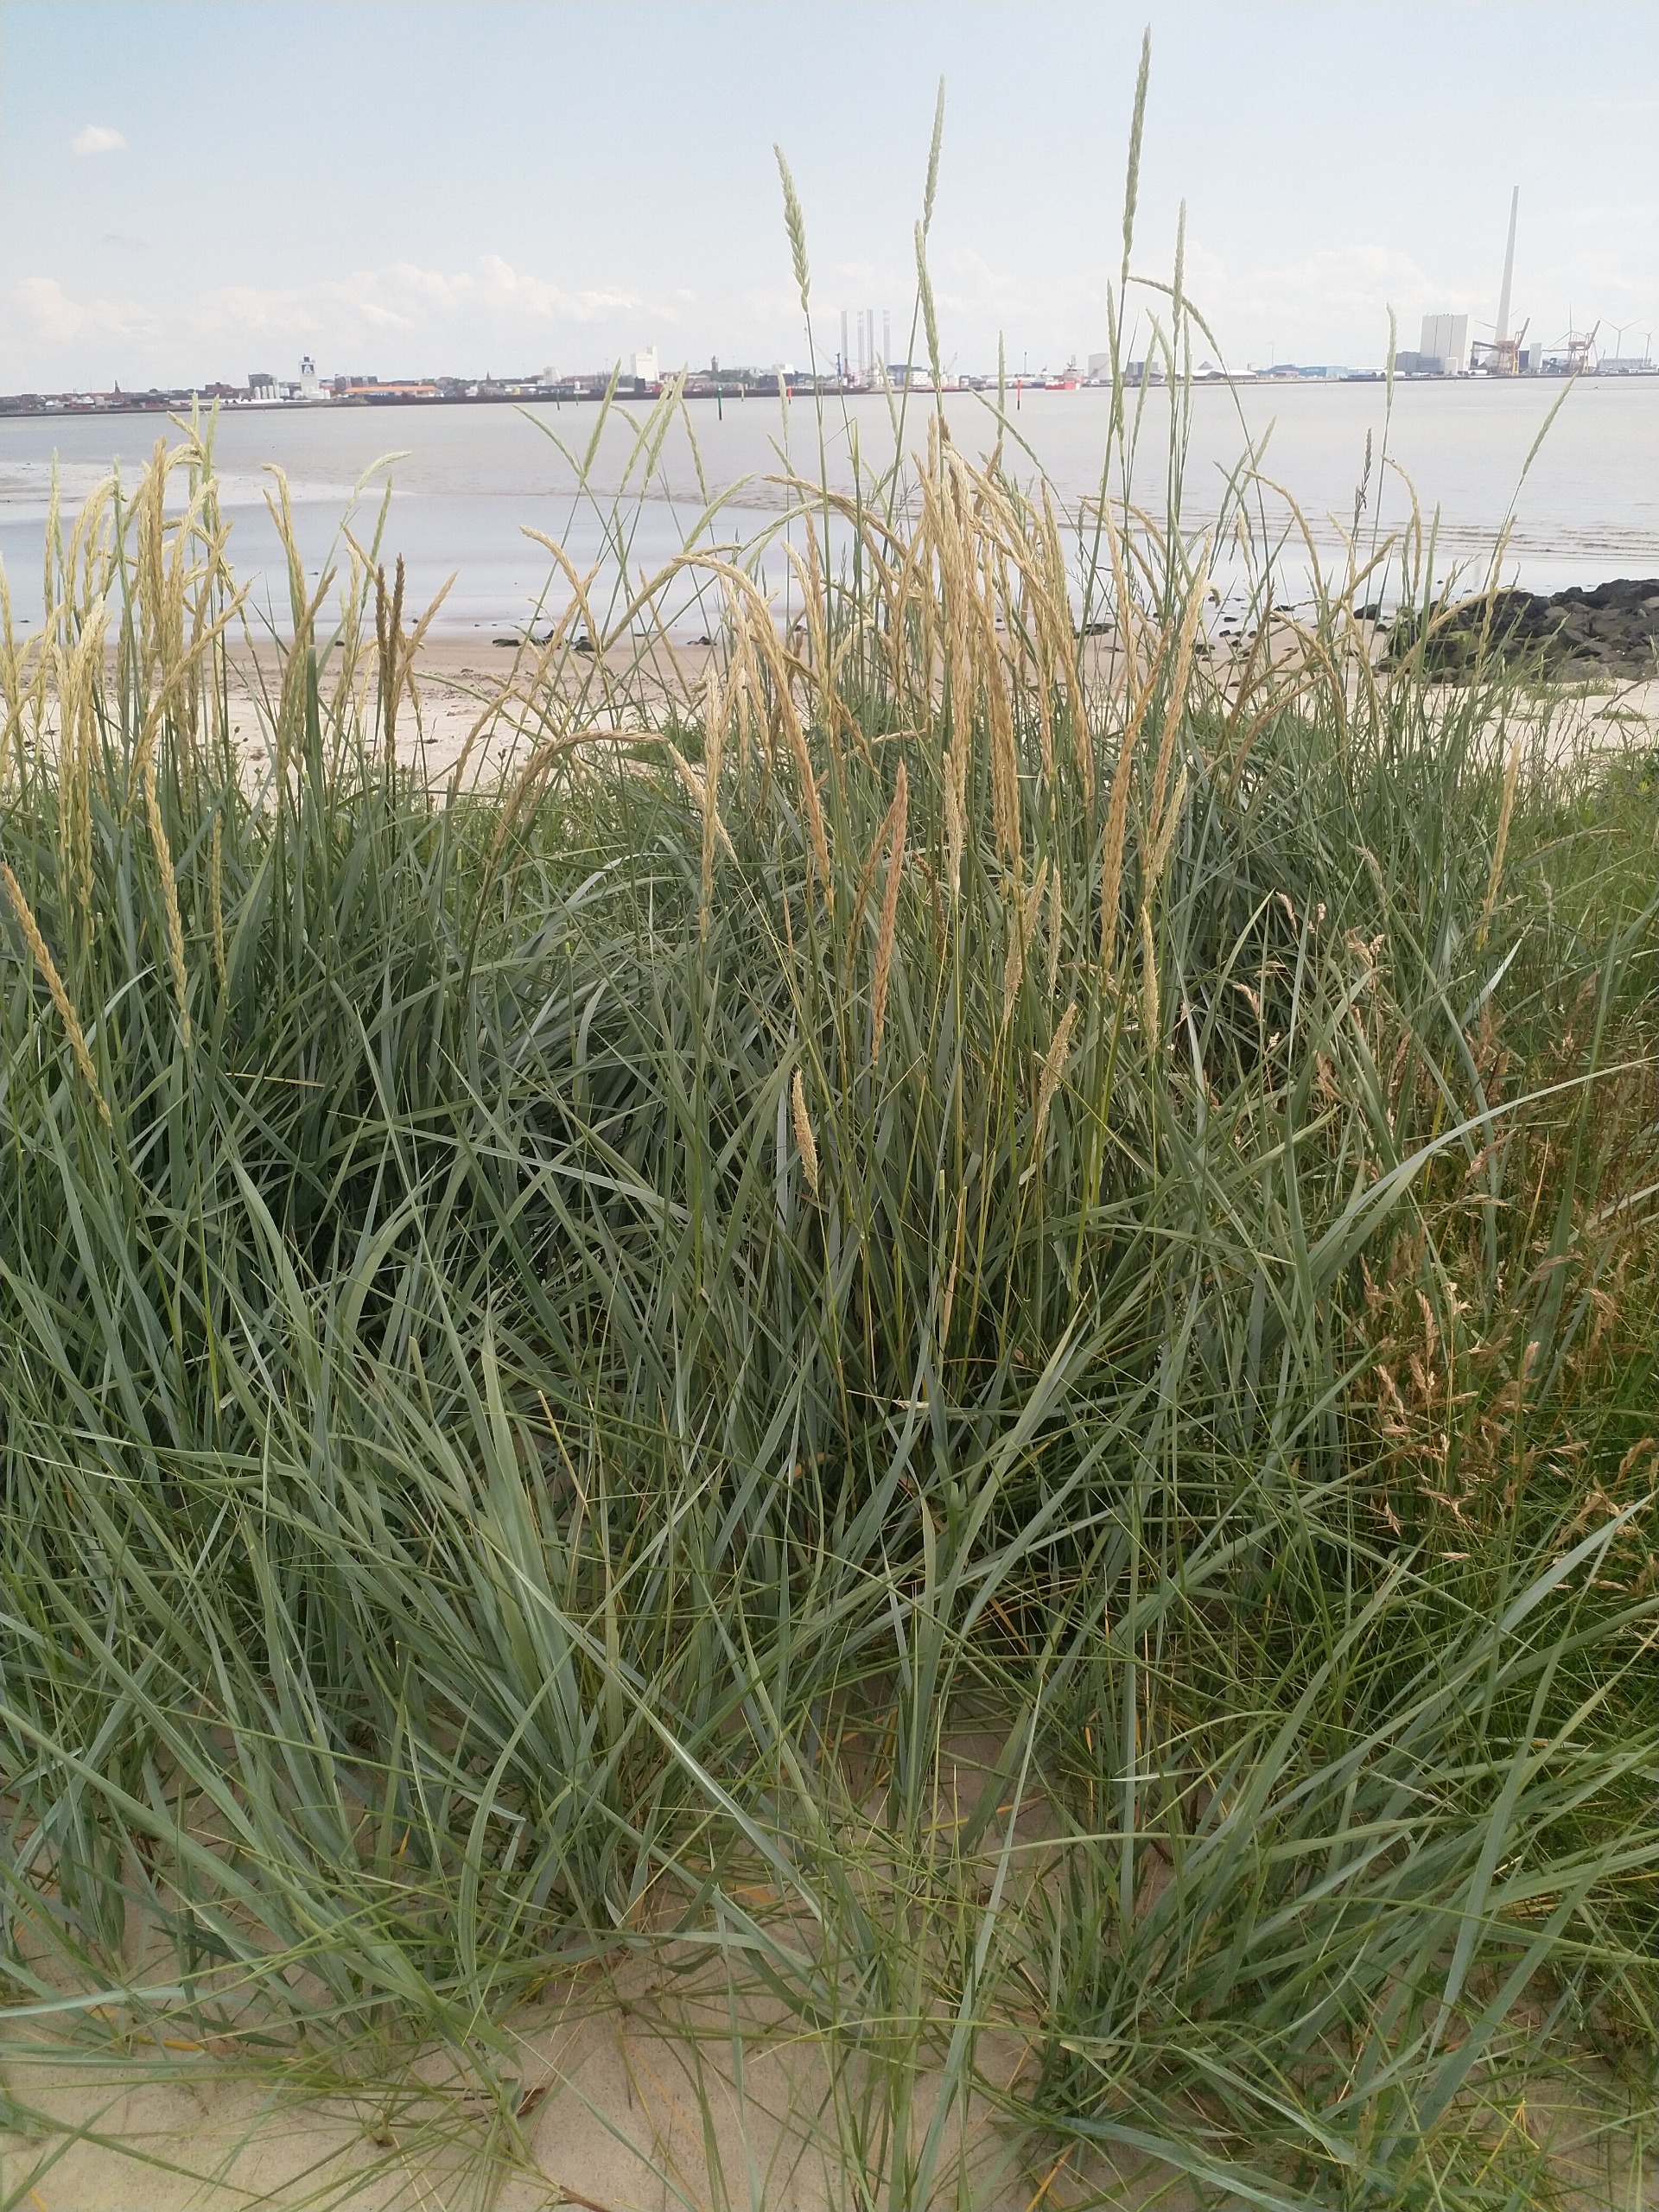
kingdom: Plantae
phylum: Tracheophyta
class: Liliopsida
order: Poales
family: Poaceae
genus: Leymus
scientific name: Leymus arenarius
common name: Marehalm
